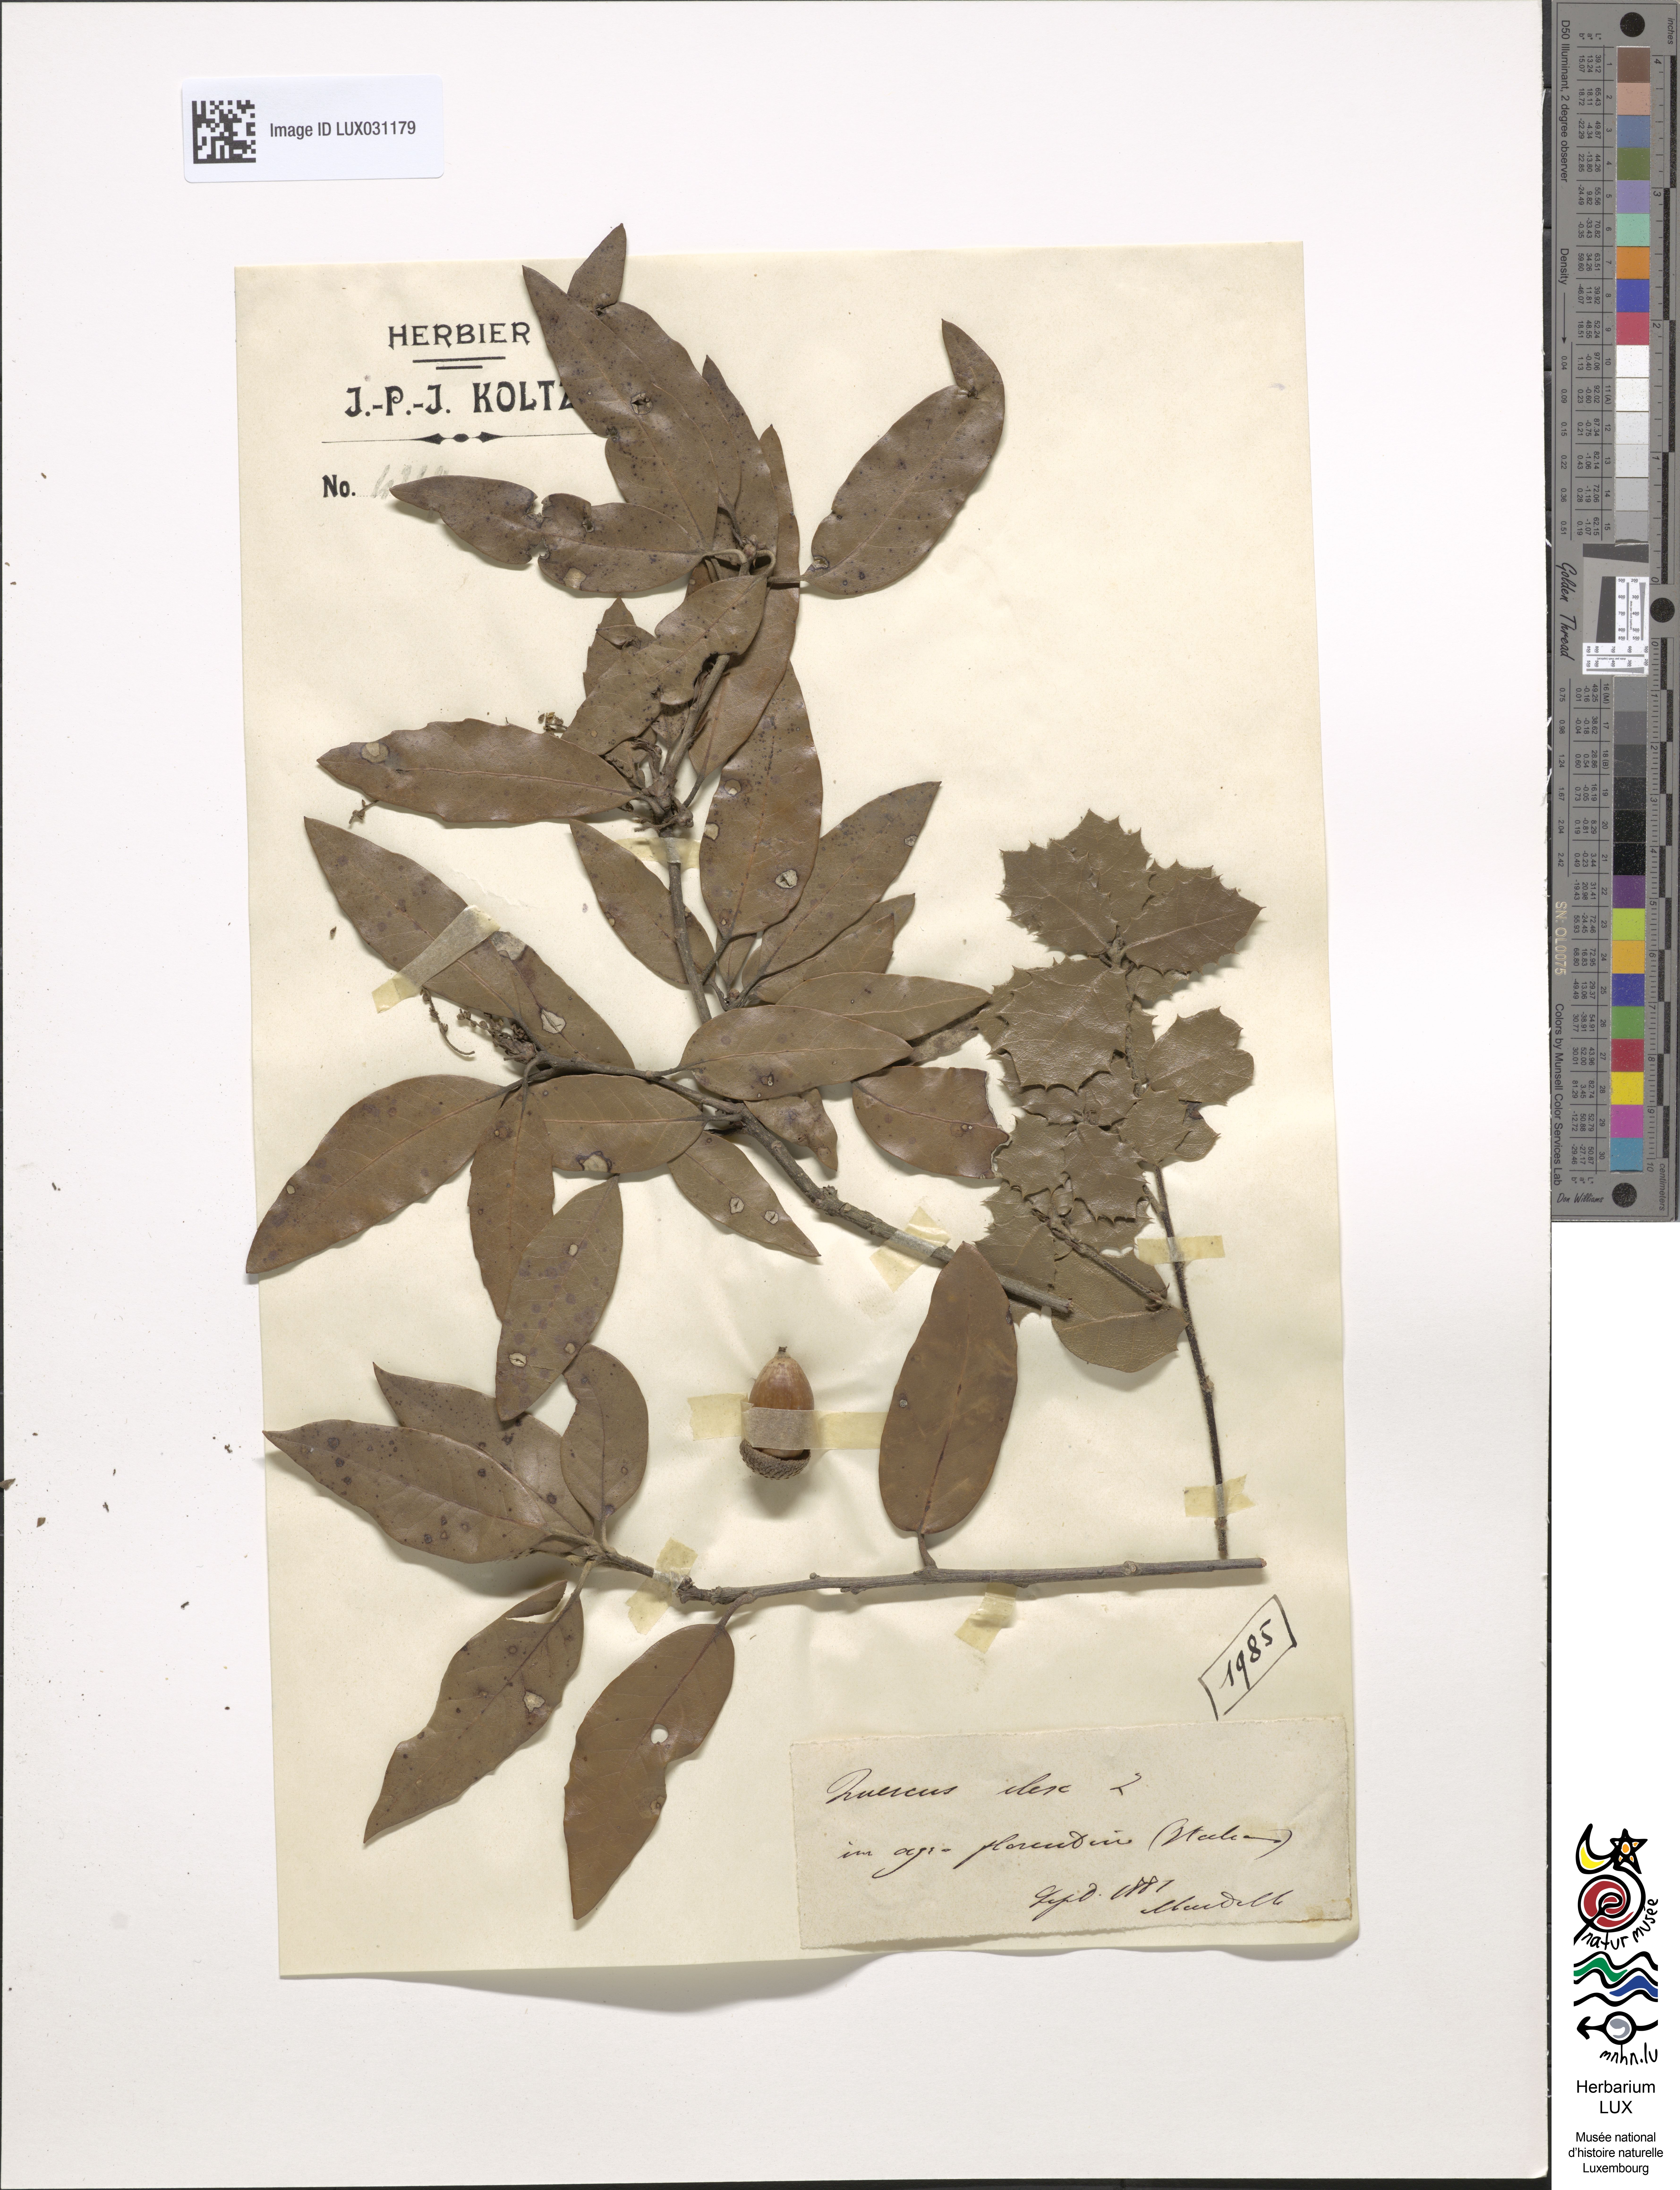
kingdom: Plantae
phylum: Tracheophyta
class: Magnoliopsida
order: Fagales
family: Fagaceae
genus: Quercus
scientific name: Quercus ilex
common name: Evergreen oak
